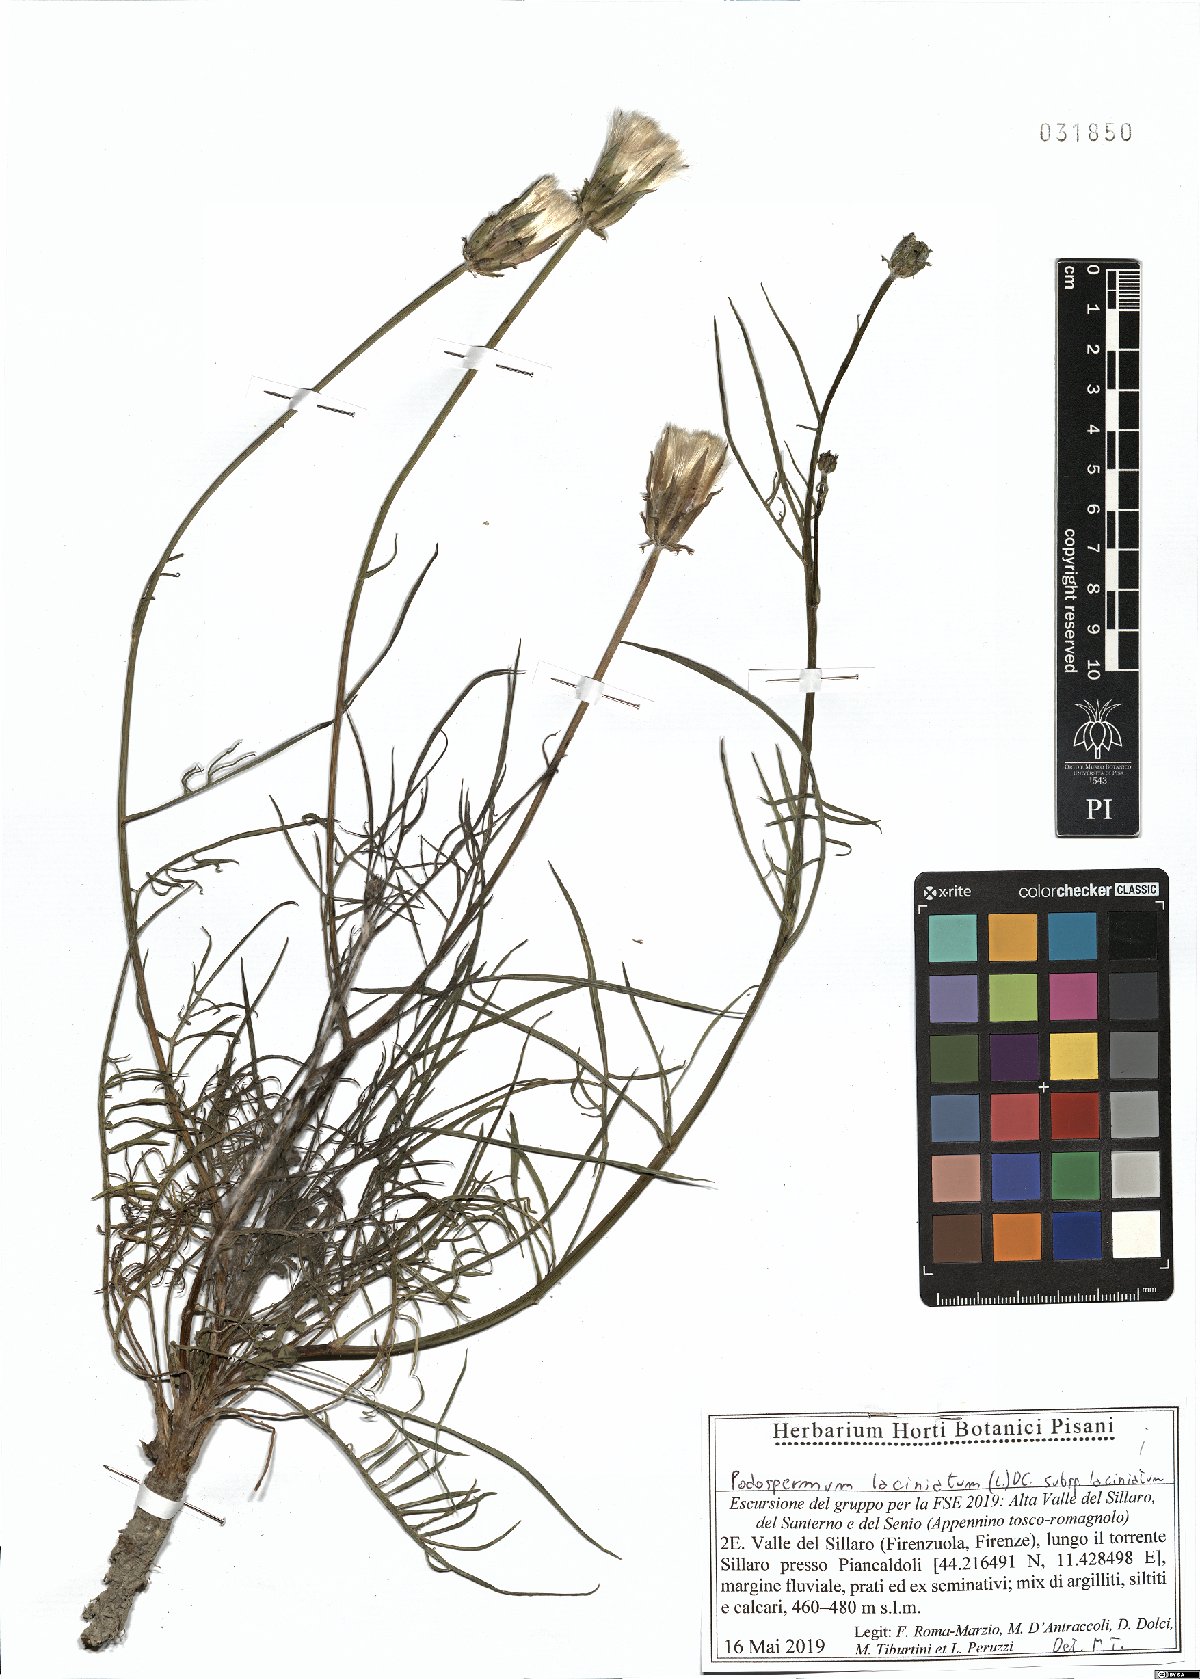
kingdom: Plantae
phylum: Tracheophyta
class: Magnoliopsida
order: Asterales
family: Asteraceae
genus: Scorzonera
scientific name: Scorzonera laciniata
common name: Cutleaf vipergrass
